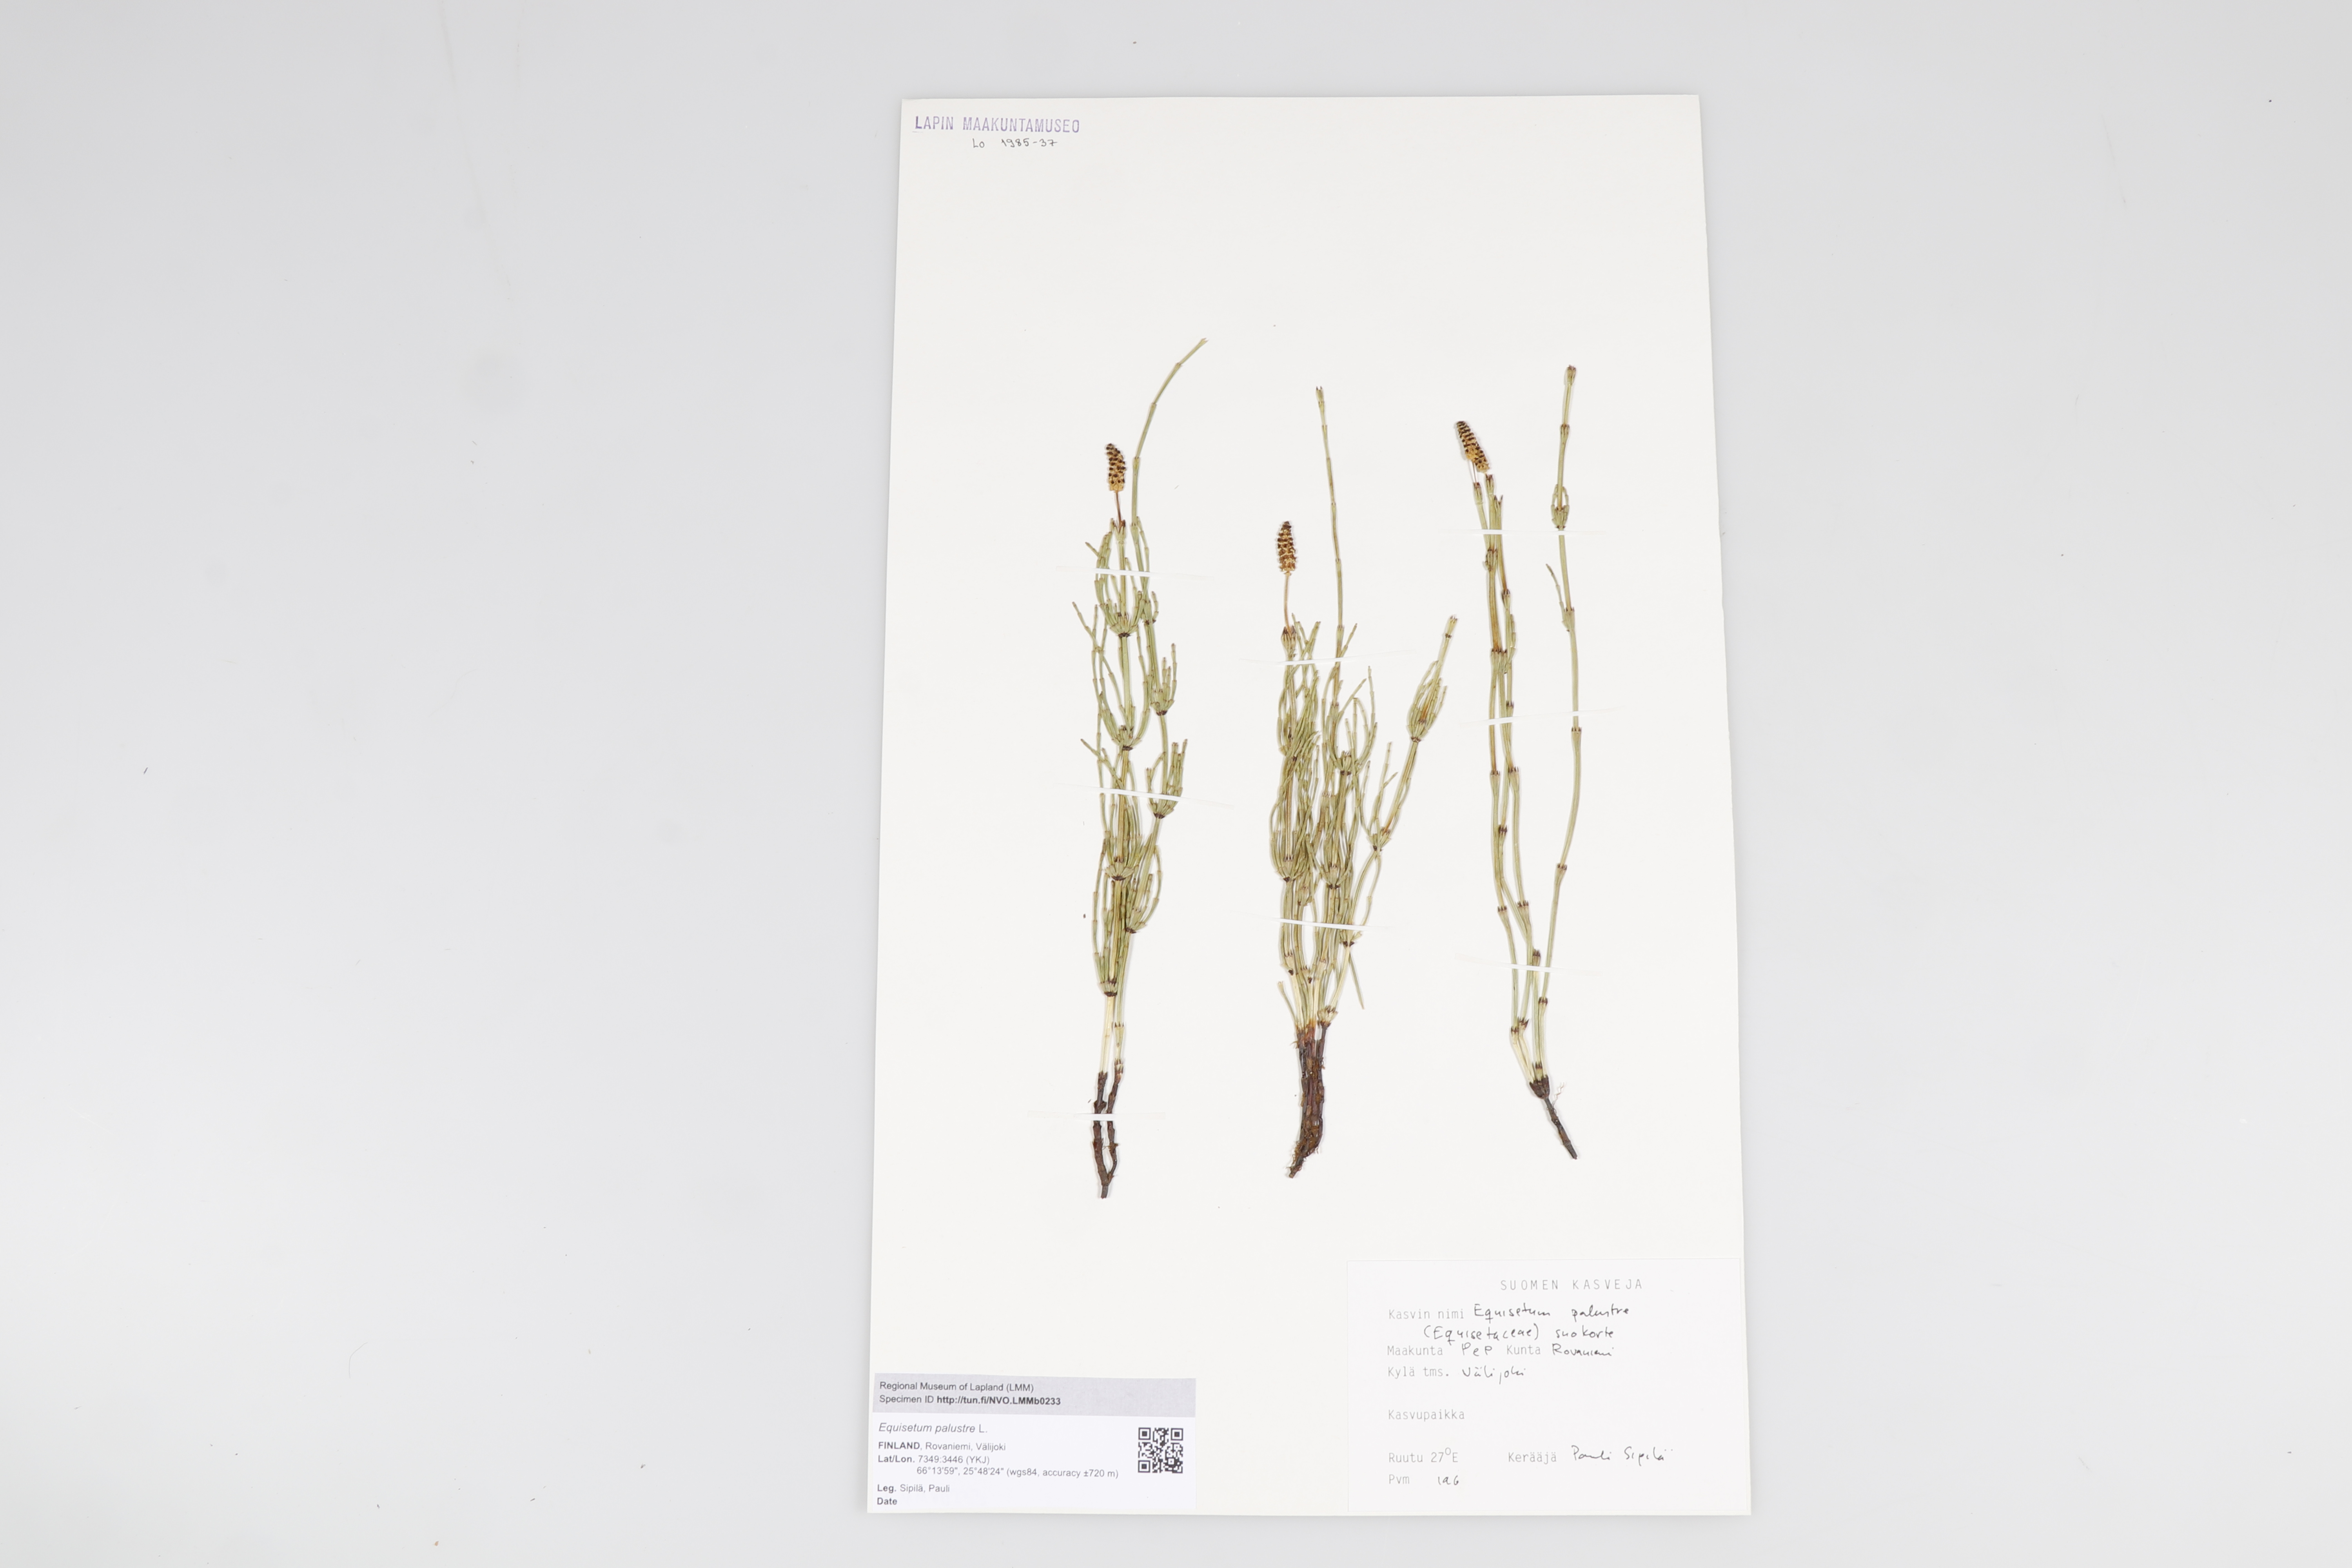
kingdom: Plantae
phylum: Tracheophyta
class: Polypodiopsida
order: Equisetales
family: Equisetaceae
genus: Equisetum
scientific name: Equisetum palustre
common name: Marsh horsetail
